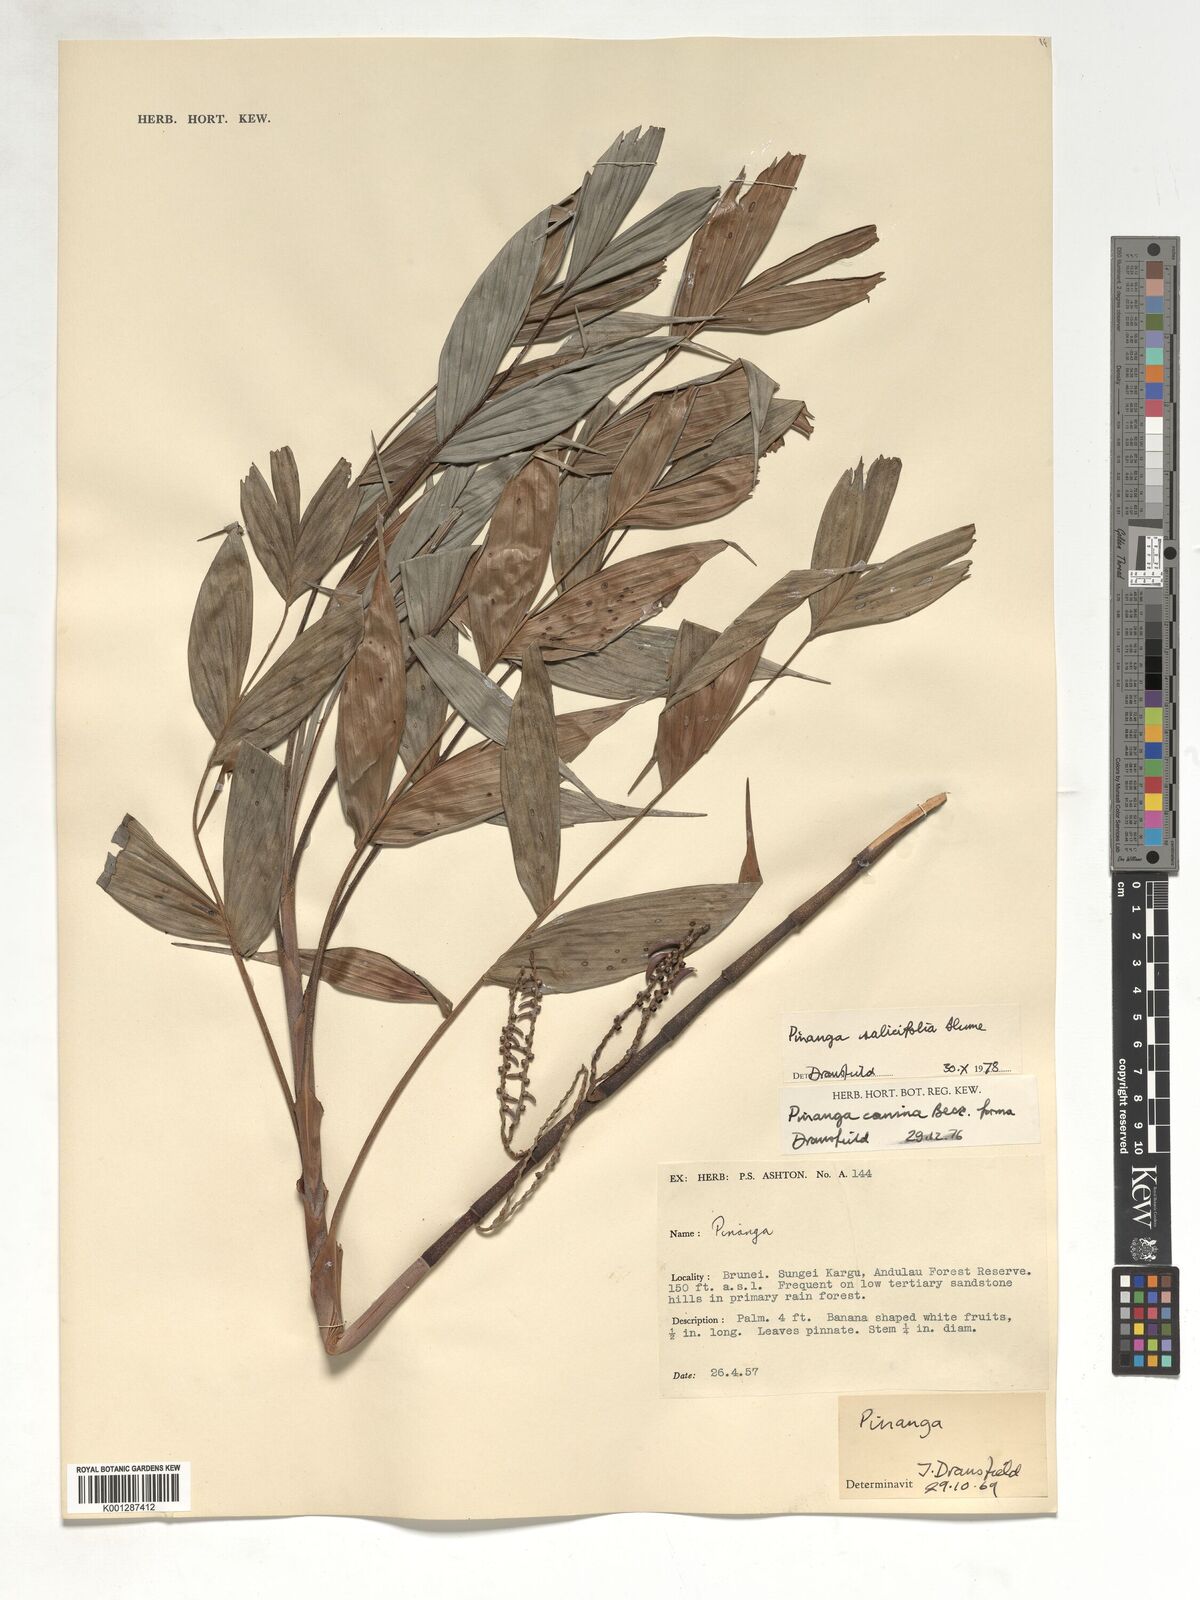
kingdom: Plantae
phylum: Tracheophyta
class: Liliopsida
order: Arecales
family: Arecaceae
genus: Pinanga
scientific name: Pinanga salicifolia
